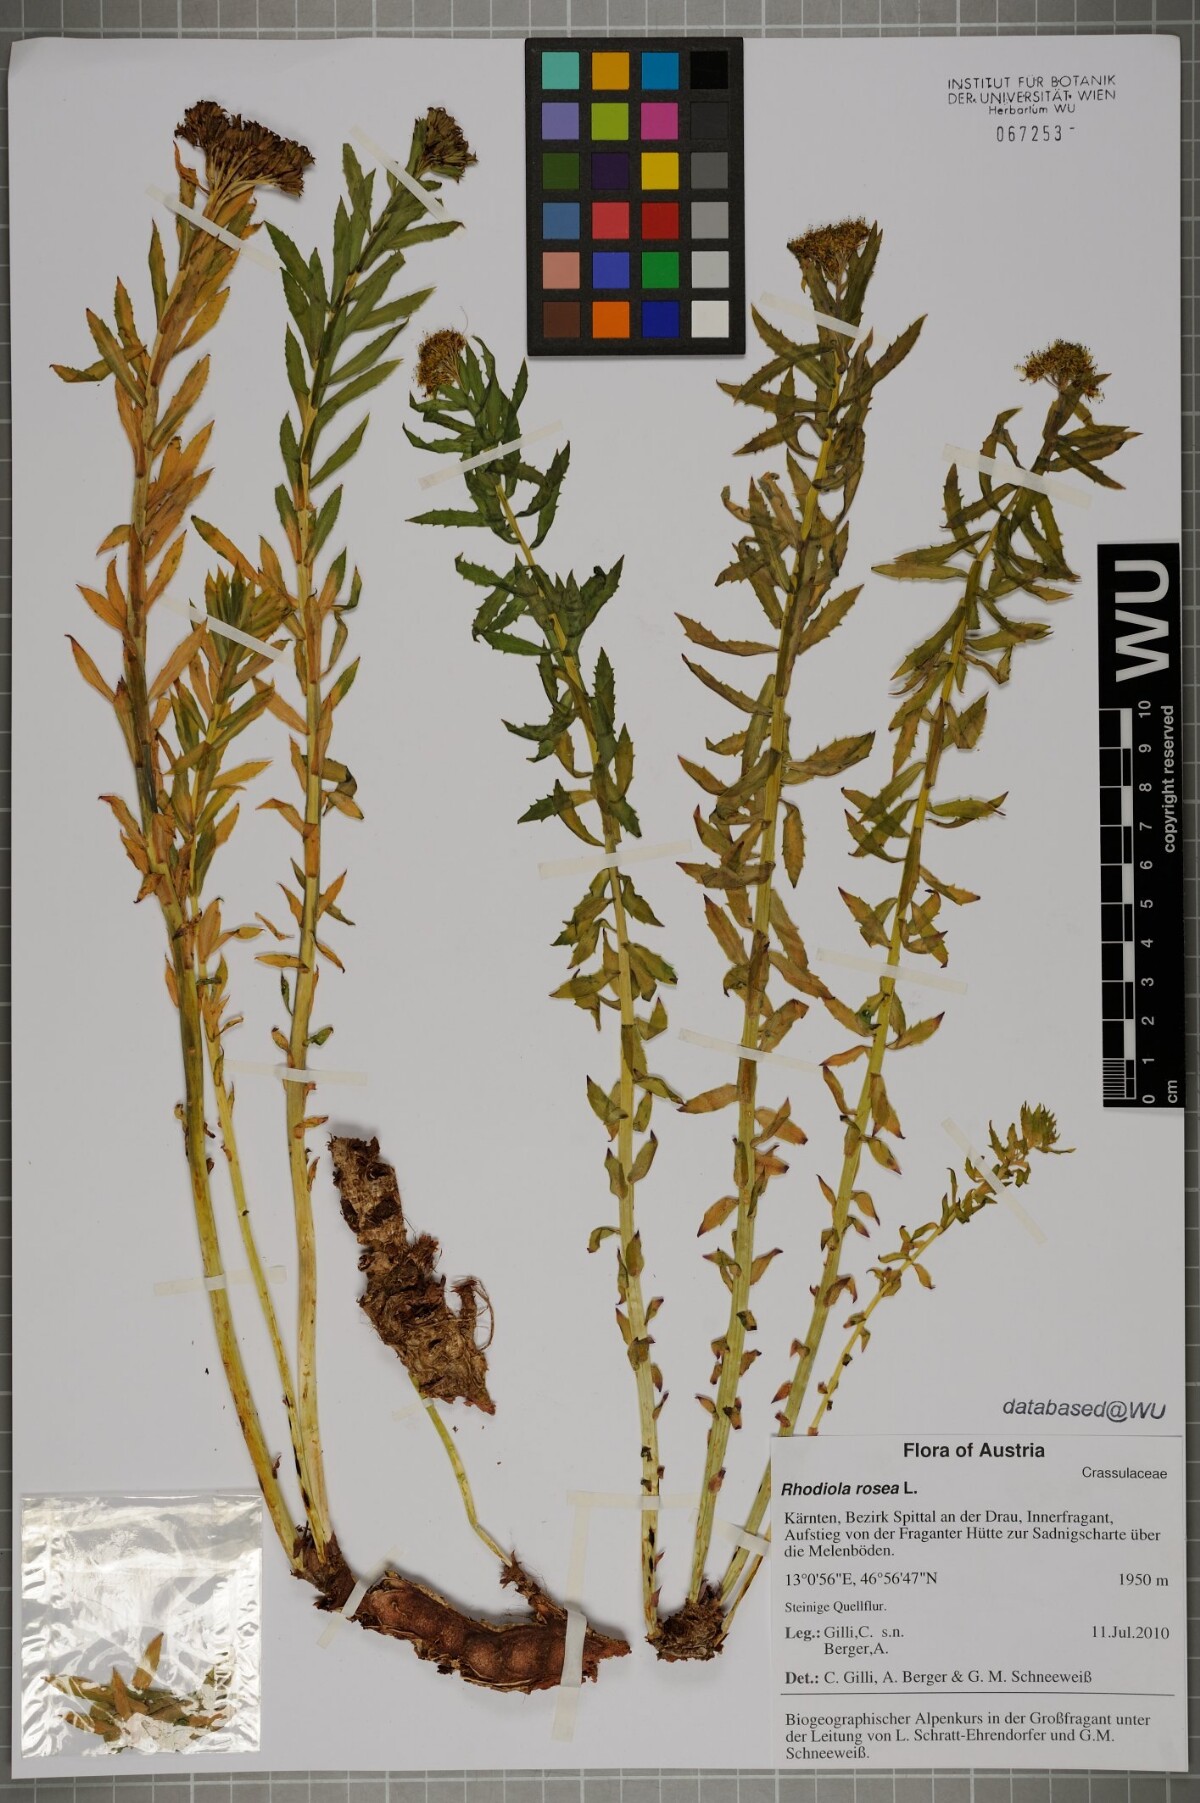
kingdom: Plantae
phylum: Tracheophyta
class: Magnoliopsida
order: Saxifragales
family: Crassulaceae
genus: Rhodiola
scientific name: Rhodiola rosea
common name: Roseroot
